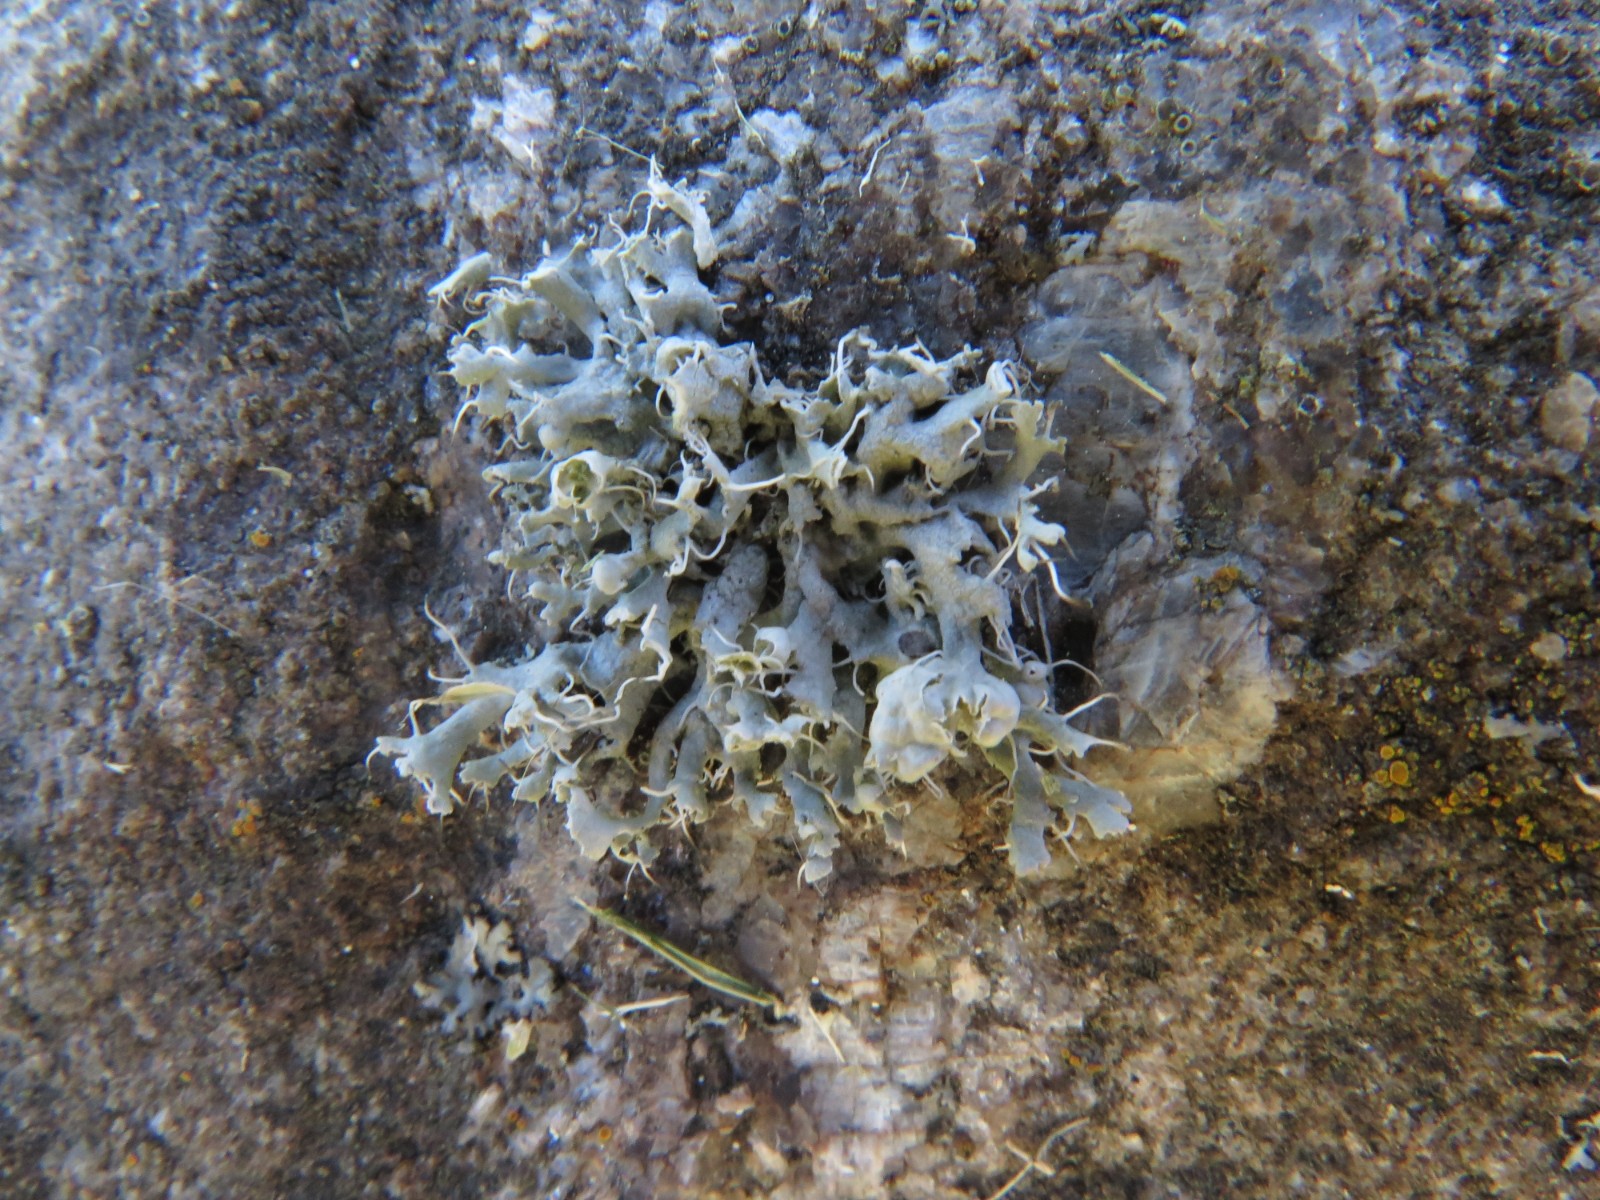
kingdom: Fungi
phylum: Ascomycota
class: Lecanoromycetes
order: Caliciales
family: Physciaceae
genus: Physcia
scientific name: Physcia adscendens
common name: hætte-rosetlav
